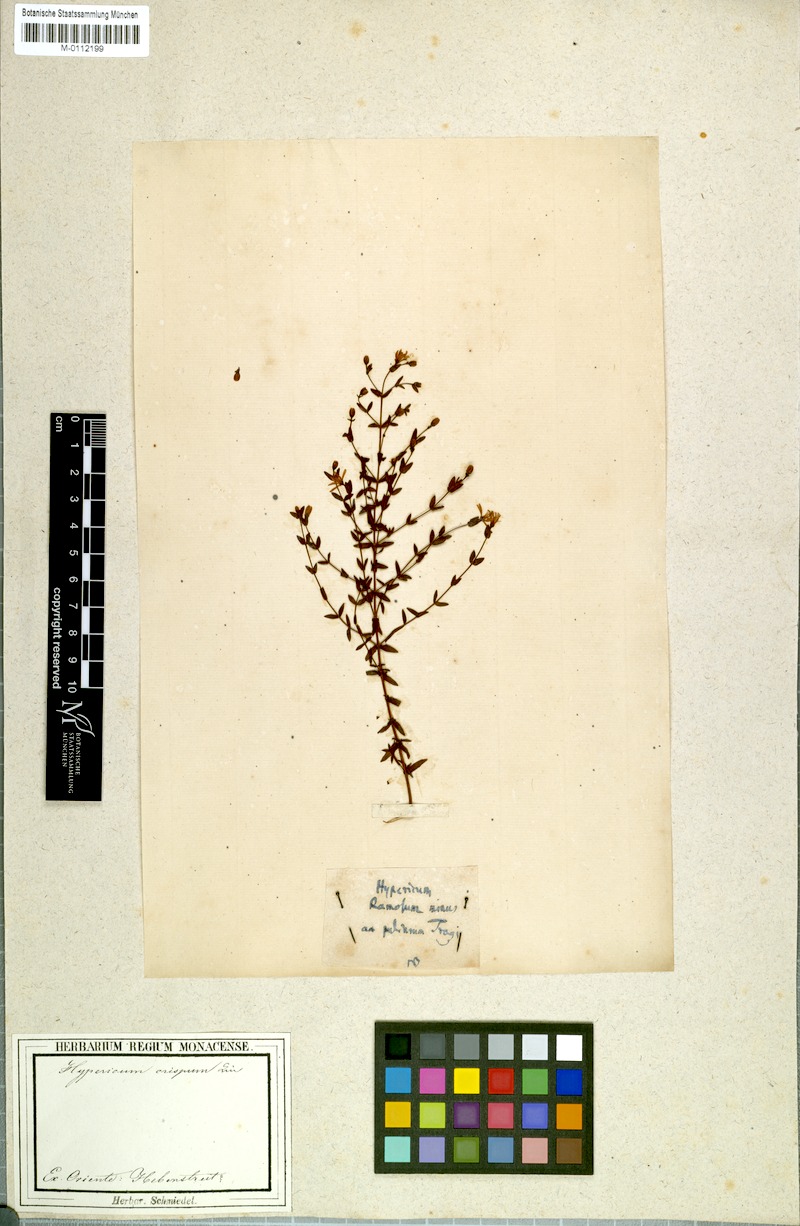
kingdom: Plantae
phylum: Tracheophyta
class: Magnoliopsida
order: Malpighiales
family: Hypericaceae
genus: Hypericum
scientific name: Hypericum tomentosum
